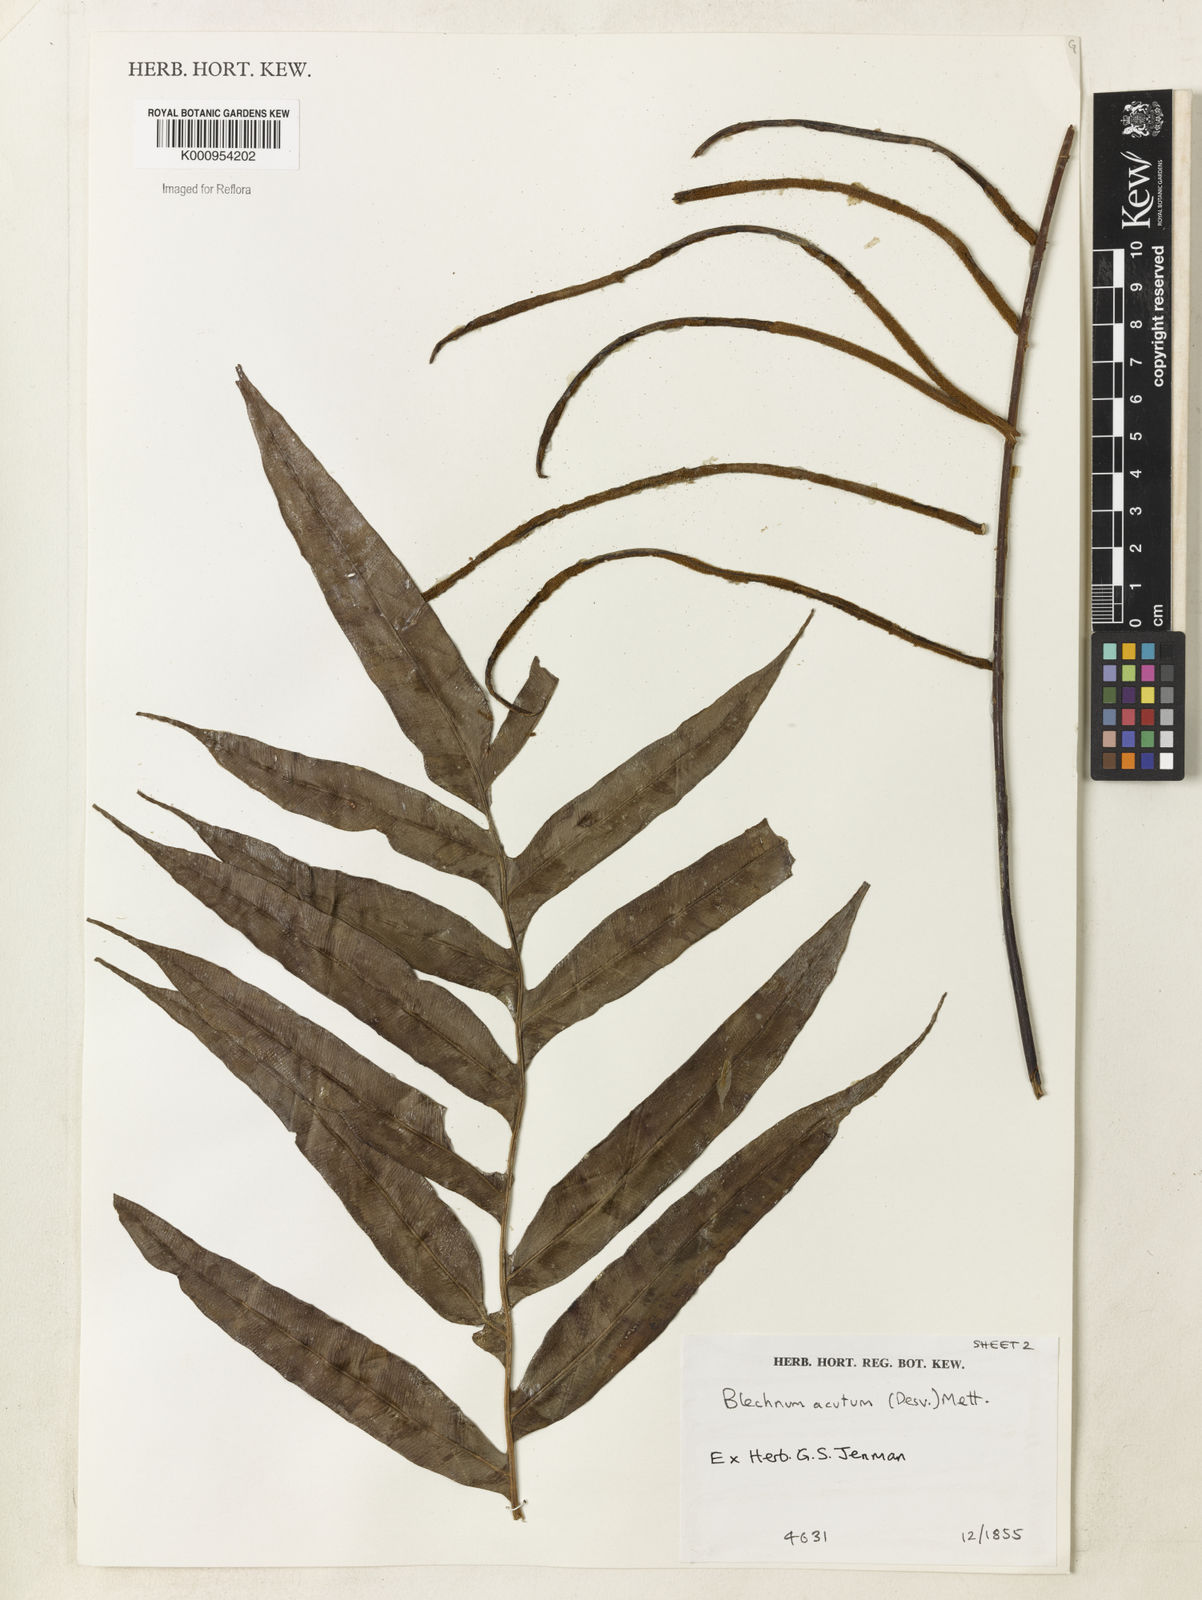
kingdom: Plantae
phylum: Tracheophyta
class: Polypodiopsida
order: Polypodiales
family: Blechnaceae
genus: Lomaridium
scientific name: Lomaridium acutum
